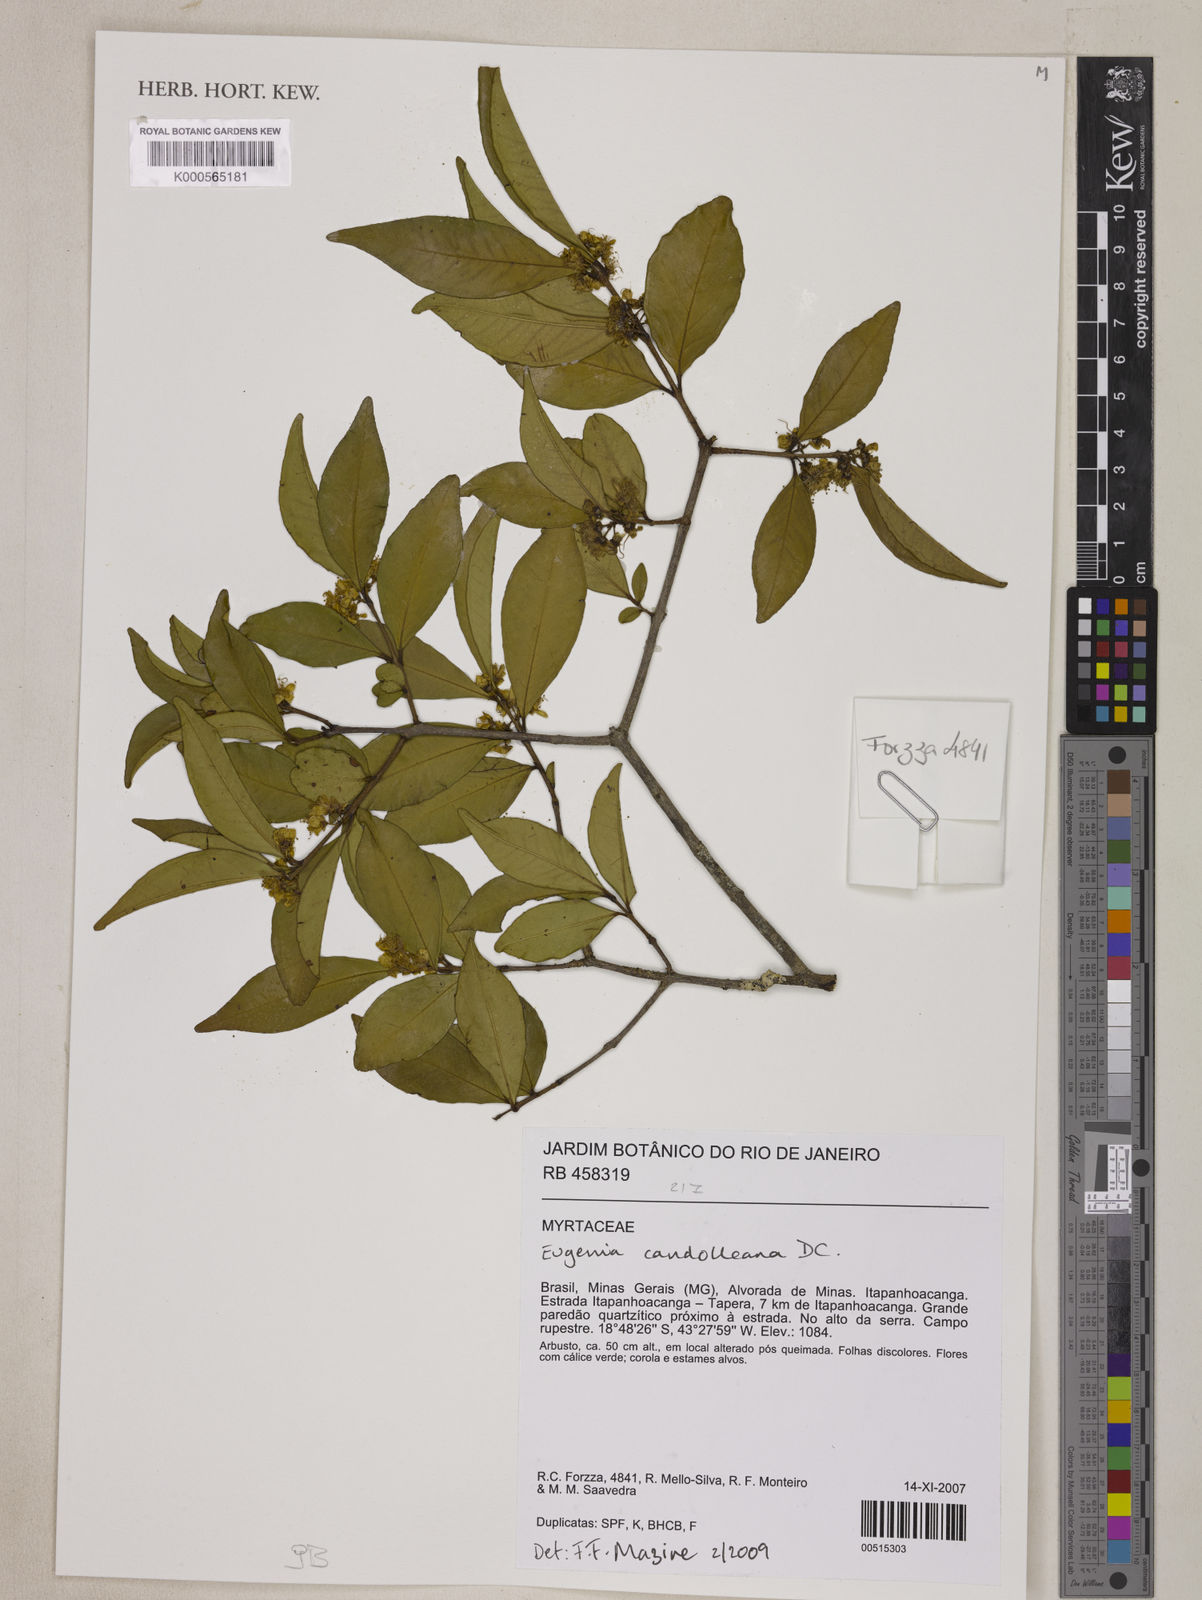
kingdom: Plantae
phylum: Tracheophyta
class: Magnoliopsida
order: Myrtales
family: Myrtaceae
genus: Eugenia
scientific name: Eugenia candolleana
